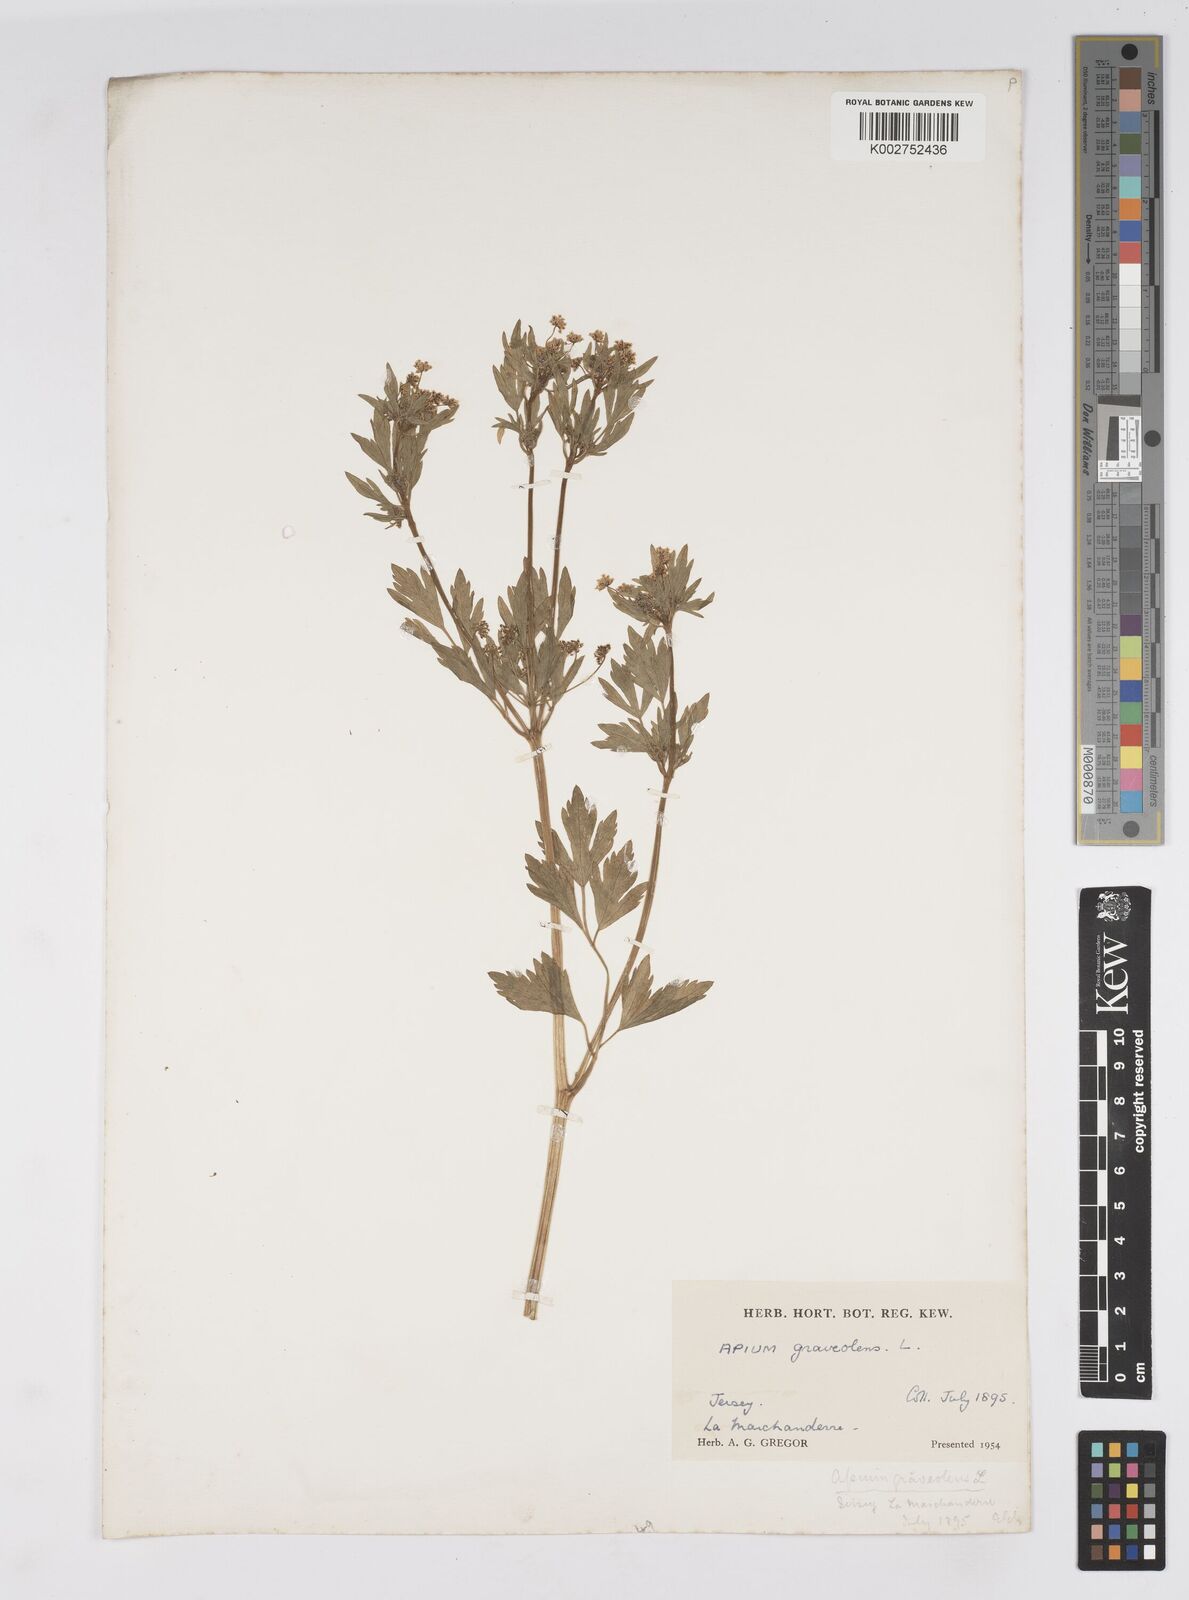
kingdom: Plantae
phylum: Tracheophyta
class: Magnoliopsida
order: Apiales
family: Apiaceae
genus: Apium
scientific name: Apium graveolens
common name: Wild celery
